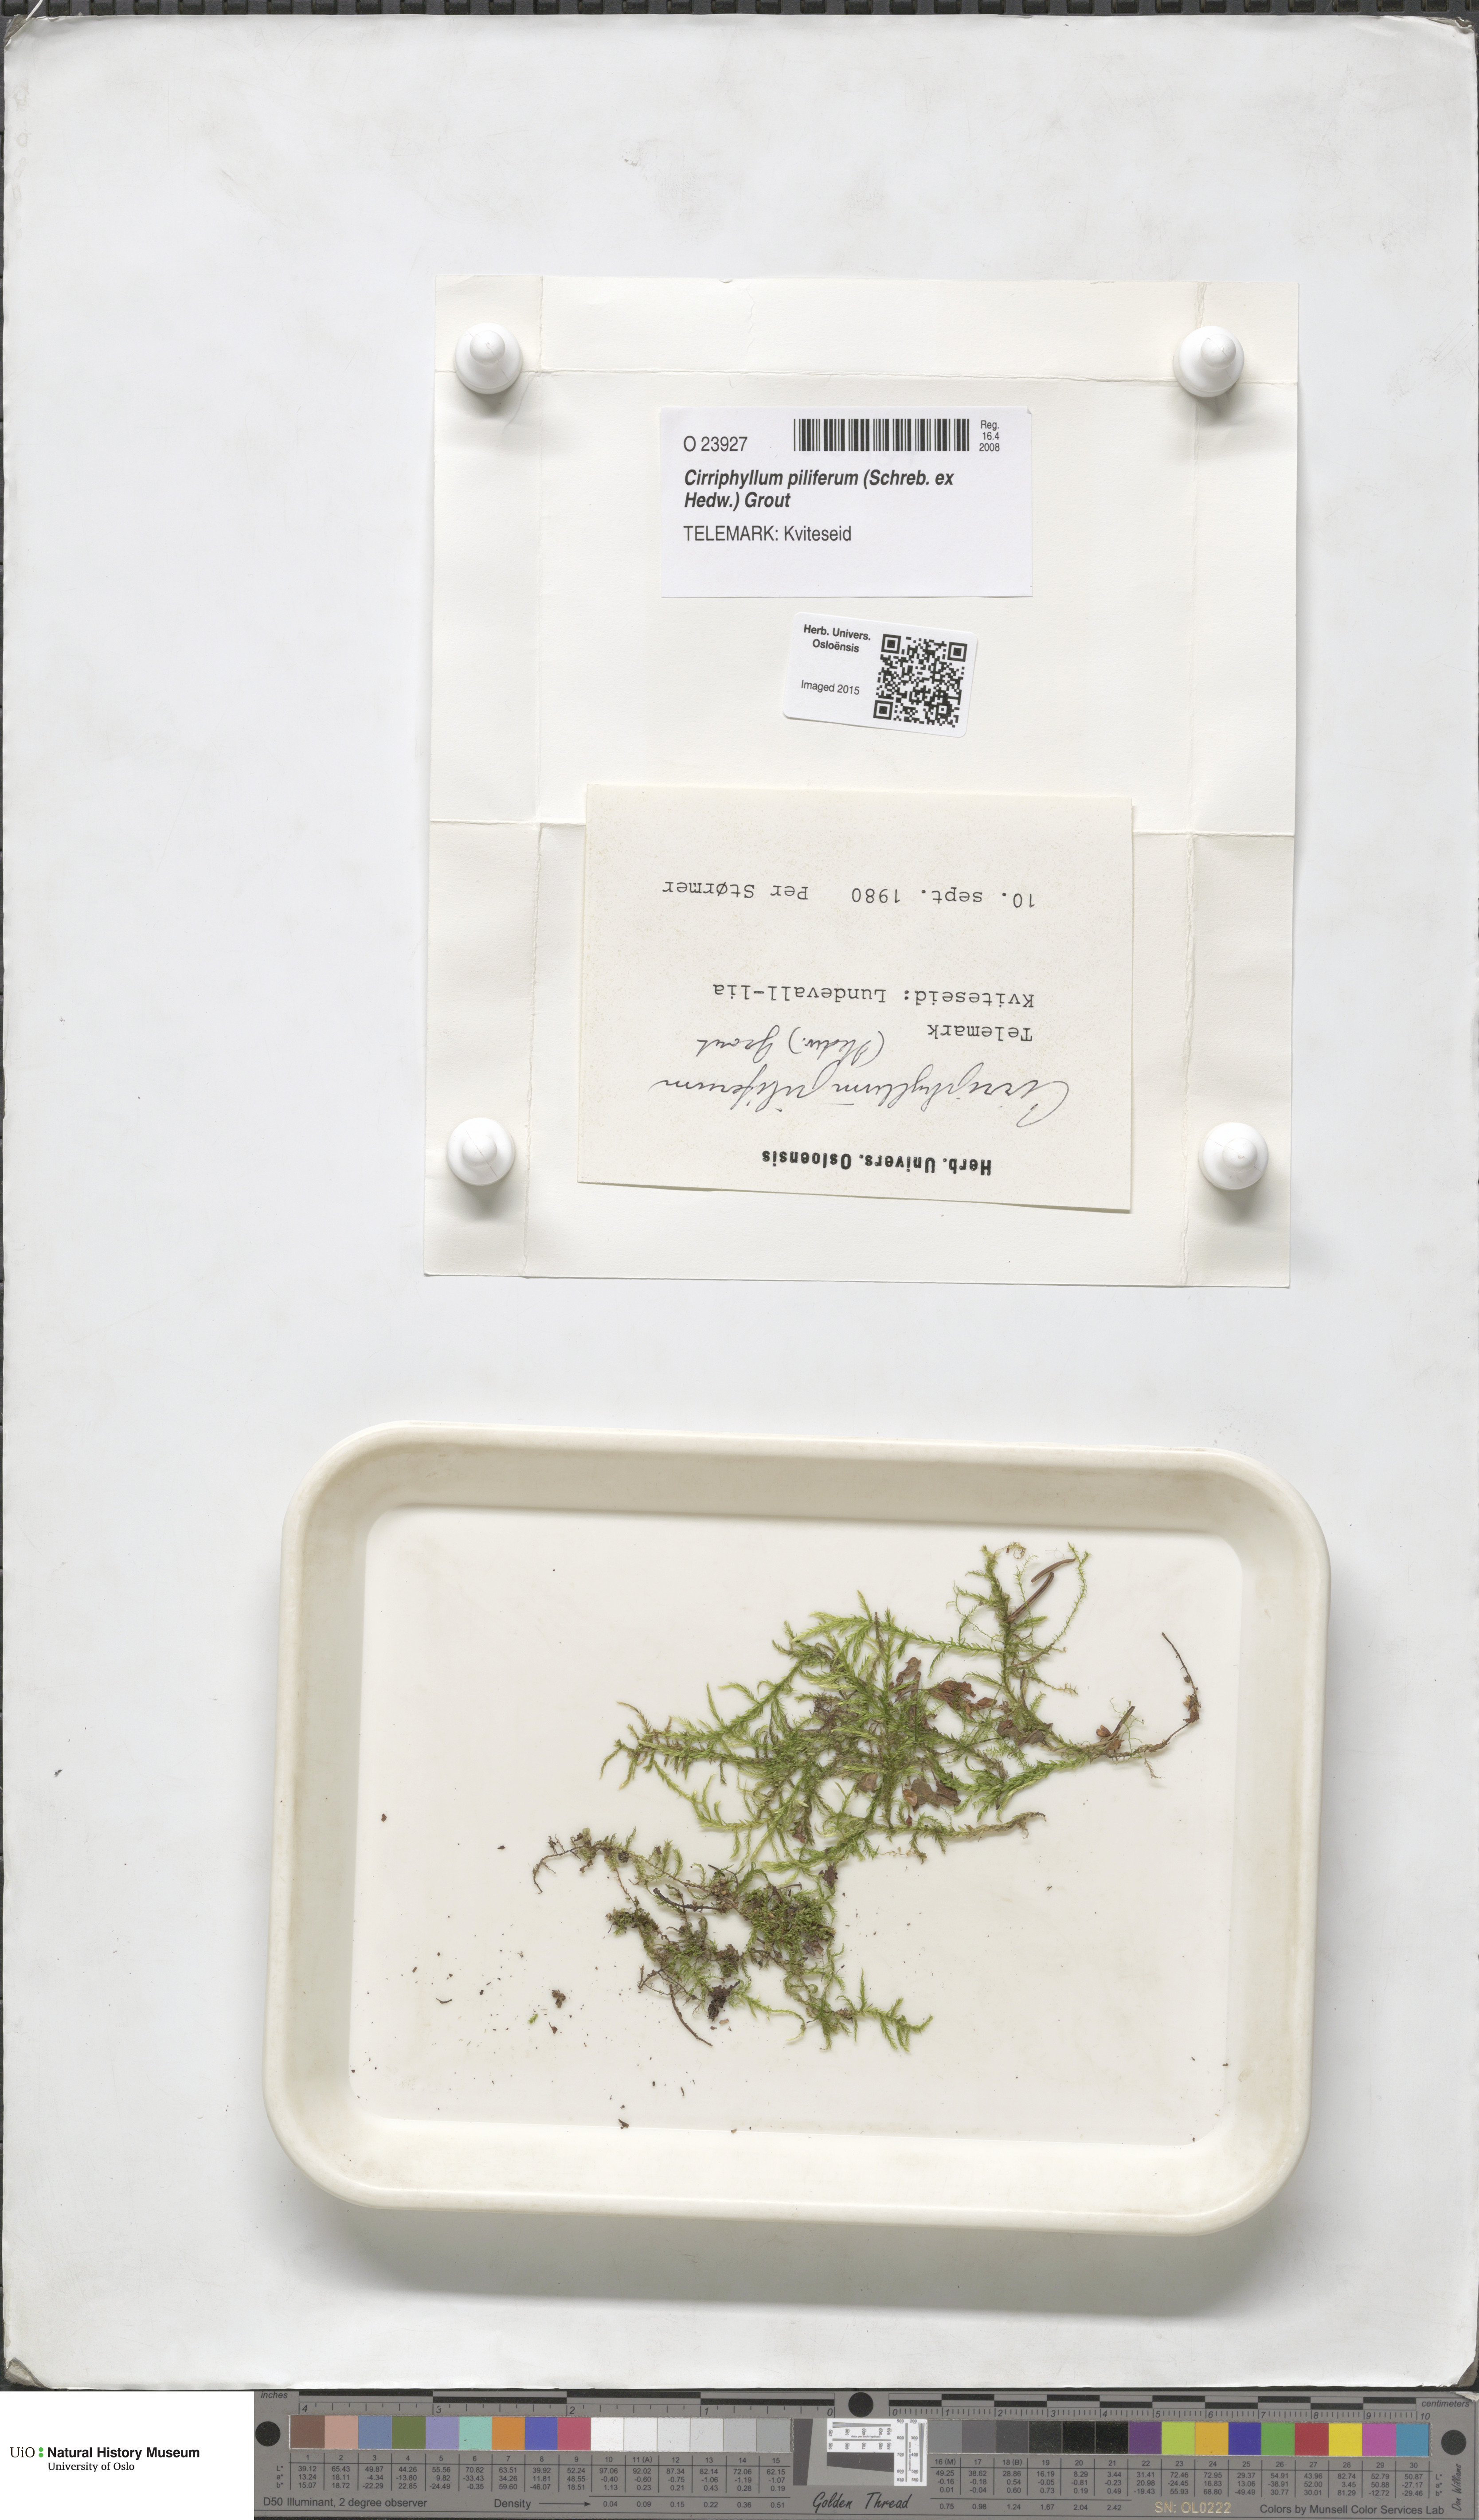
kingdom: Plantae
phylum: Bryophyta
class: Bryopsida
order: Hypnales
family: Brachytheciaceae
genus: Cirriphyllum
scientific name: Cirriphyllum piliferum
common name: Hair-pointed moss
